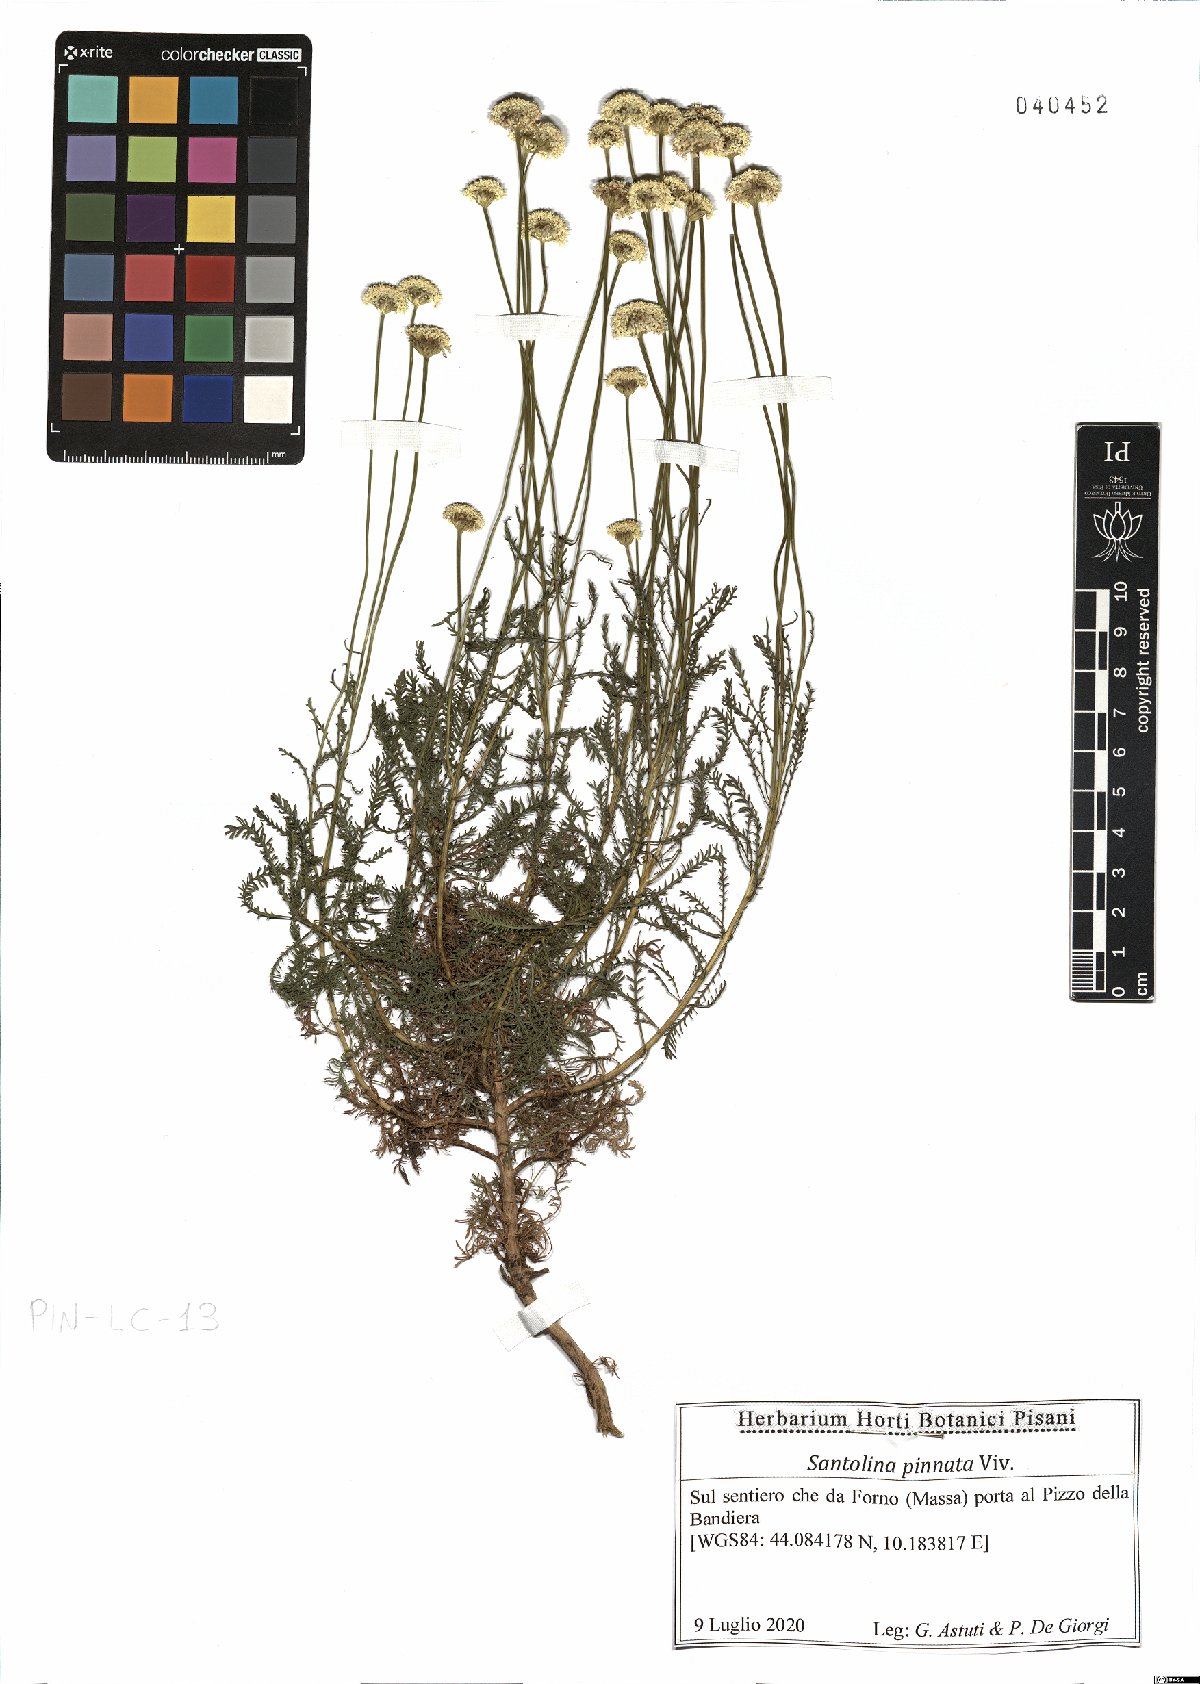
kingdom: Plantae
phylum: Tracheophyta
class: Magnoliopsida
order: Asterales
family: Asteraceae
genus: Santolina
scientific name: Santolina pinnata
